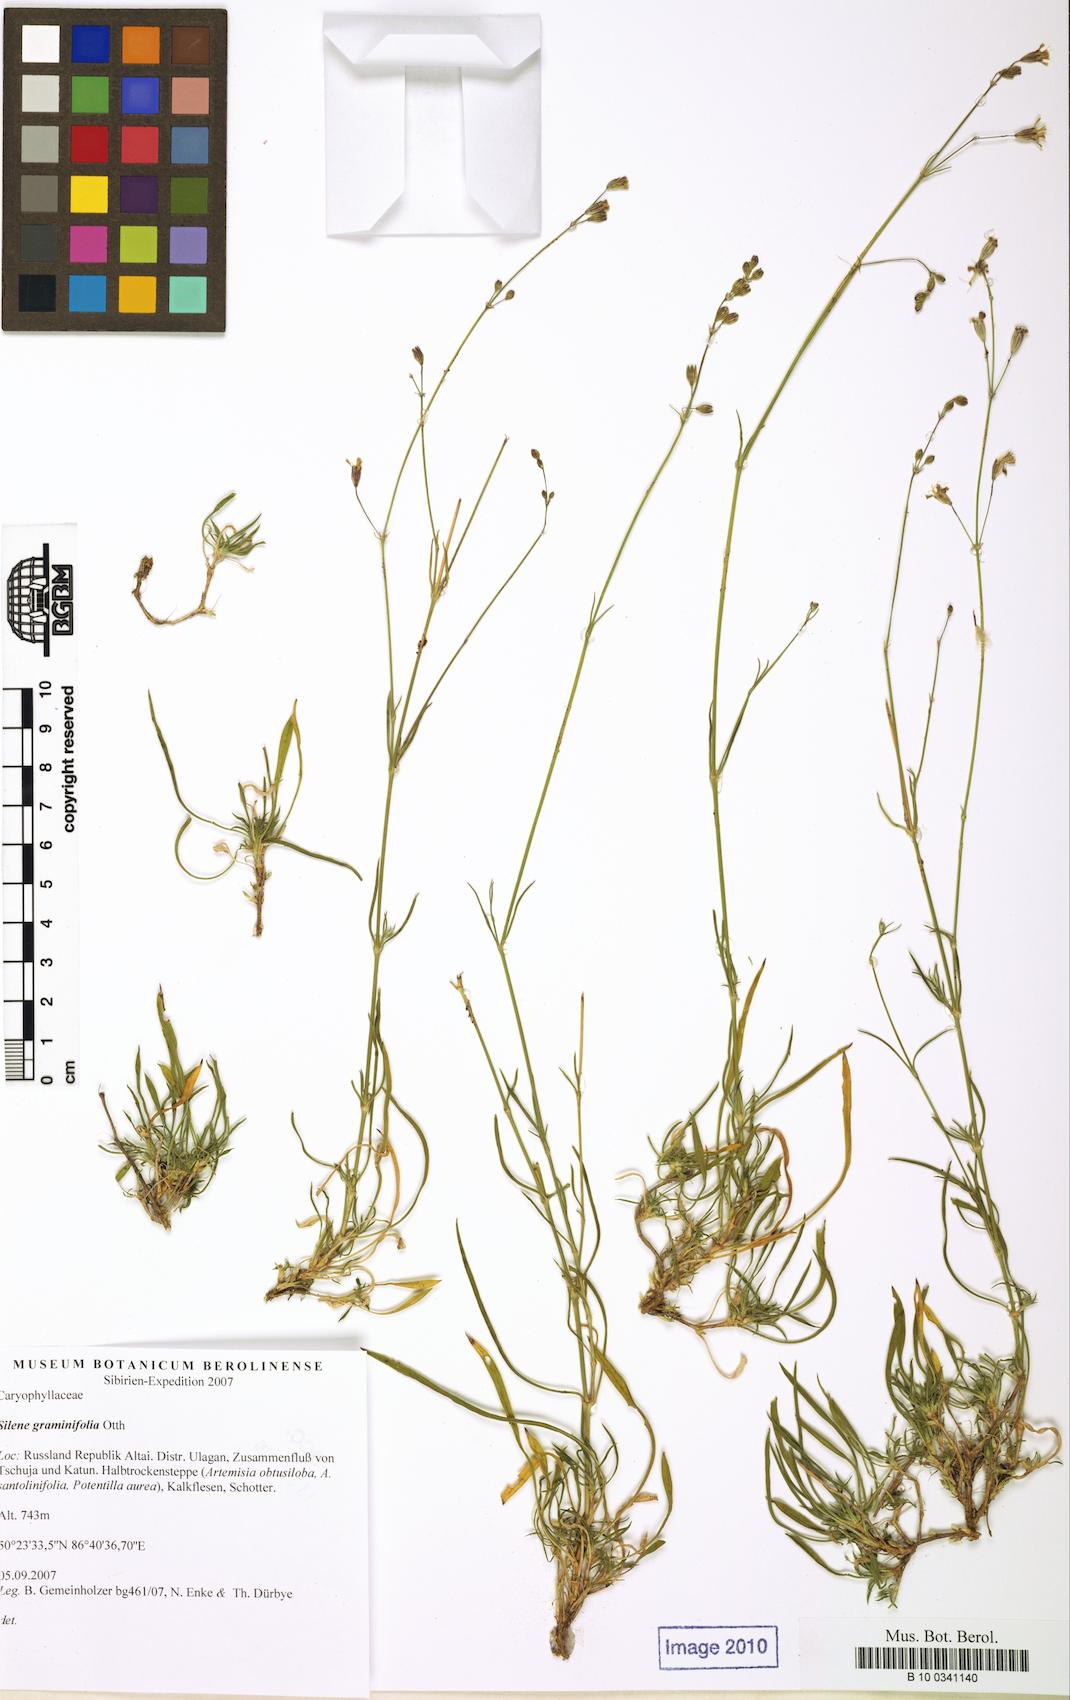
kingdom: Plantae
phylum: Tracheophyta
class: Magnoliopsida
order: Caryophyllales
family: Caryophyllaceae
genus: Silene
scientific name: Silene graminifolia
